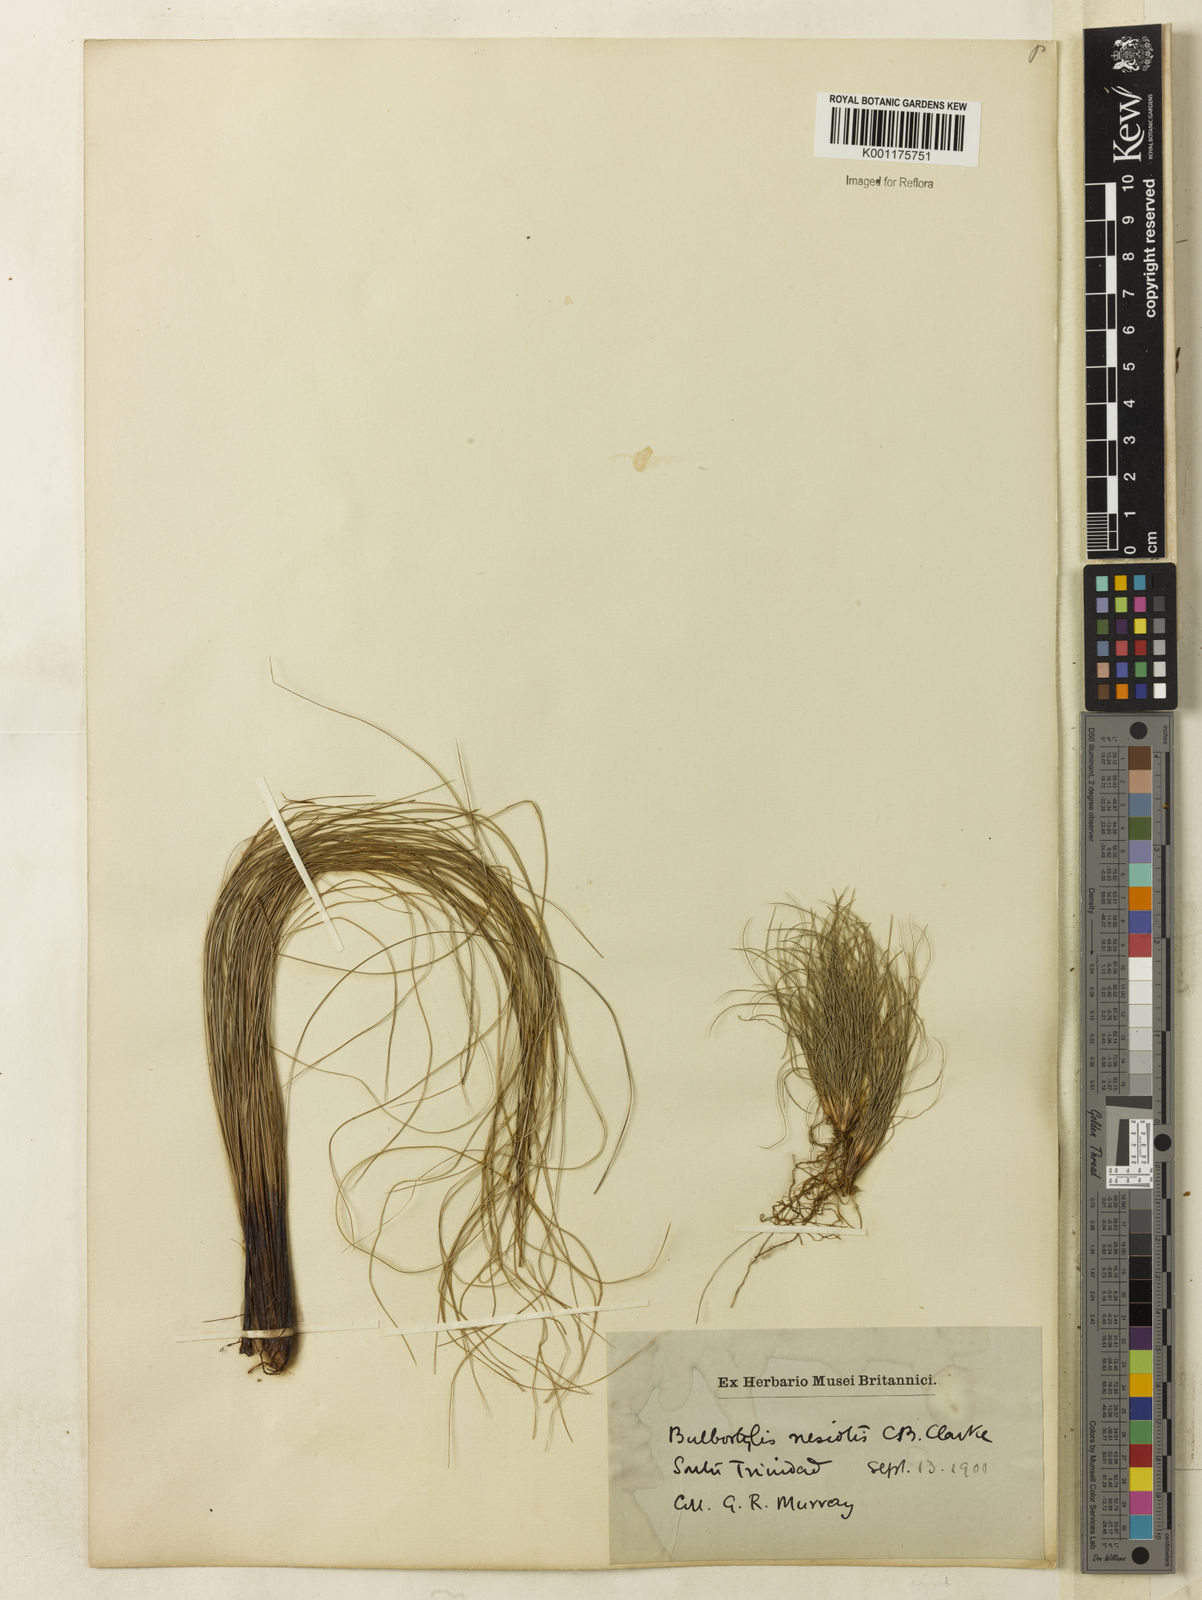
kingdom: Plantae
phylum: Tracheophyta
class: Liliopsida
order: Poales
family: Cyperaceae
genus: Bulbostylis
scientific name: Bulbostylis nesiotis
